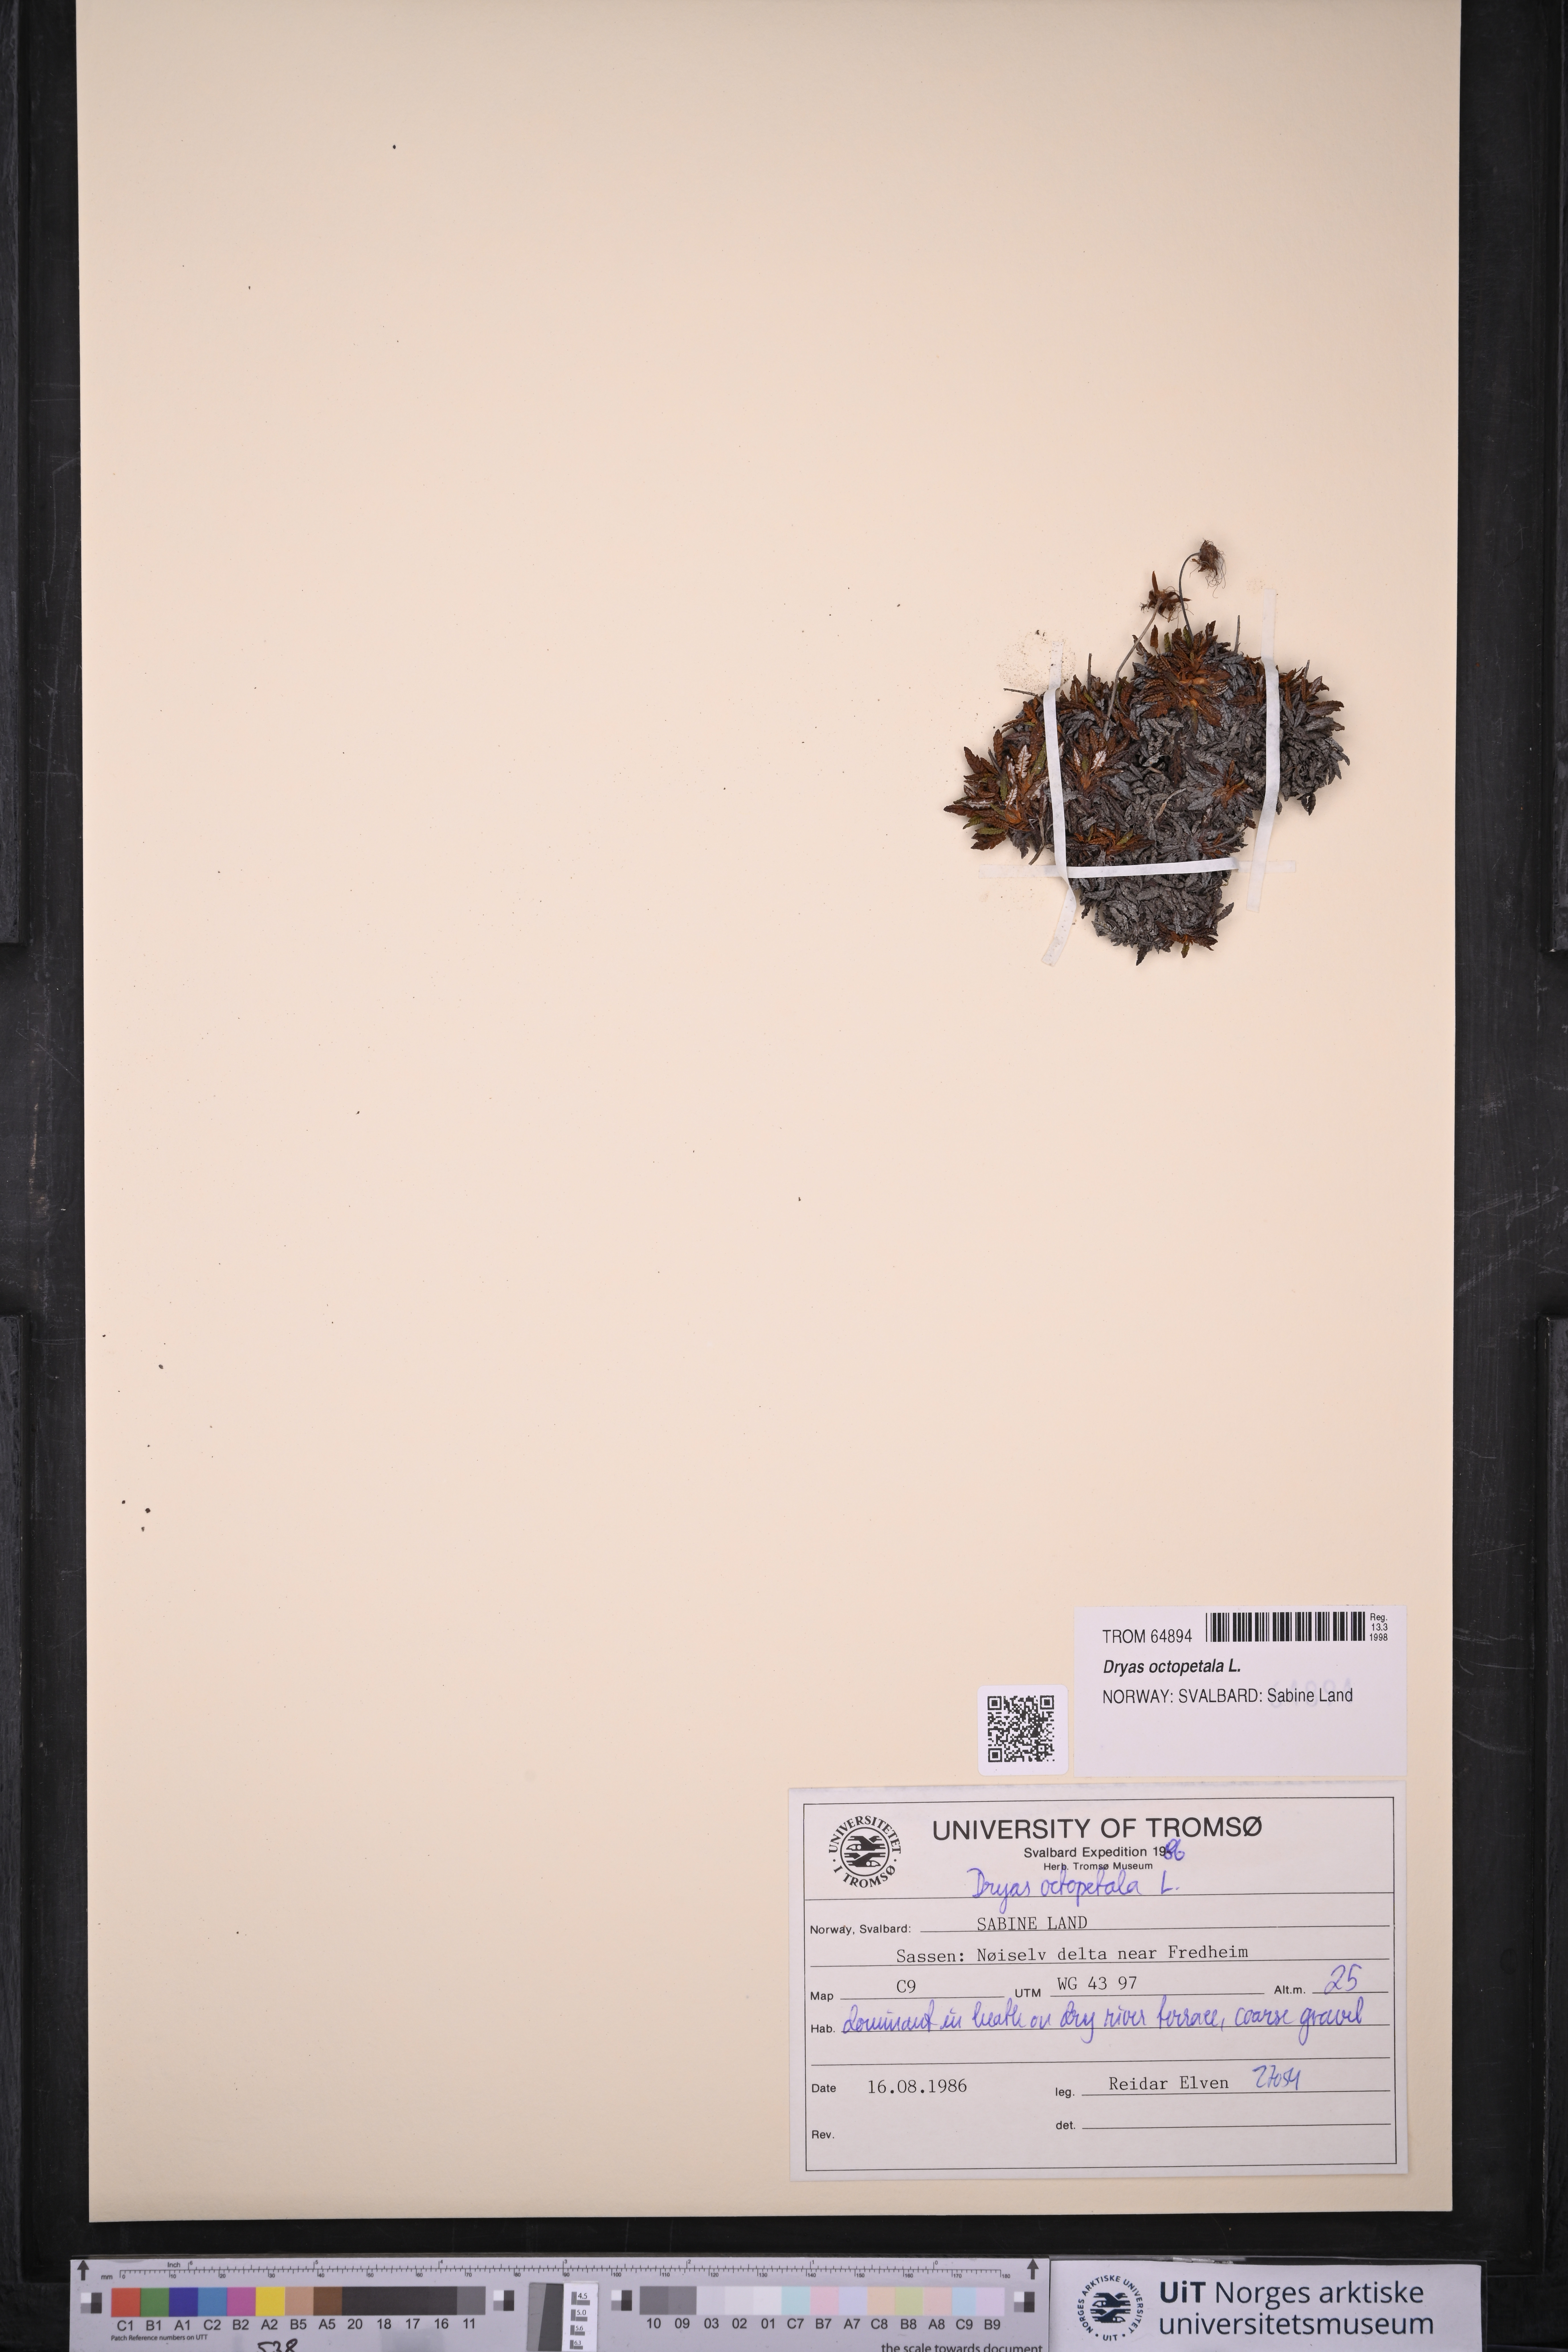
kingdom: Plantae
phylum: Tracheophyta
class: Magnoliopsida
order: Rosales
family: Rosaceae
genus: Dryas
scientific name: Dryas octopetala
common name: Eight-petal mountain-avens
